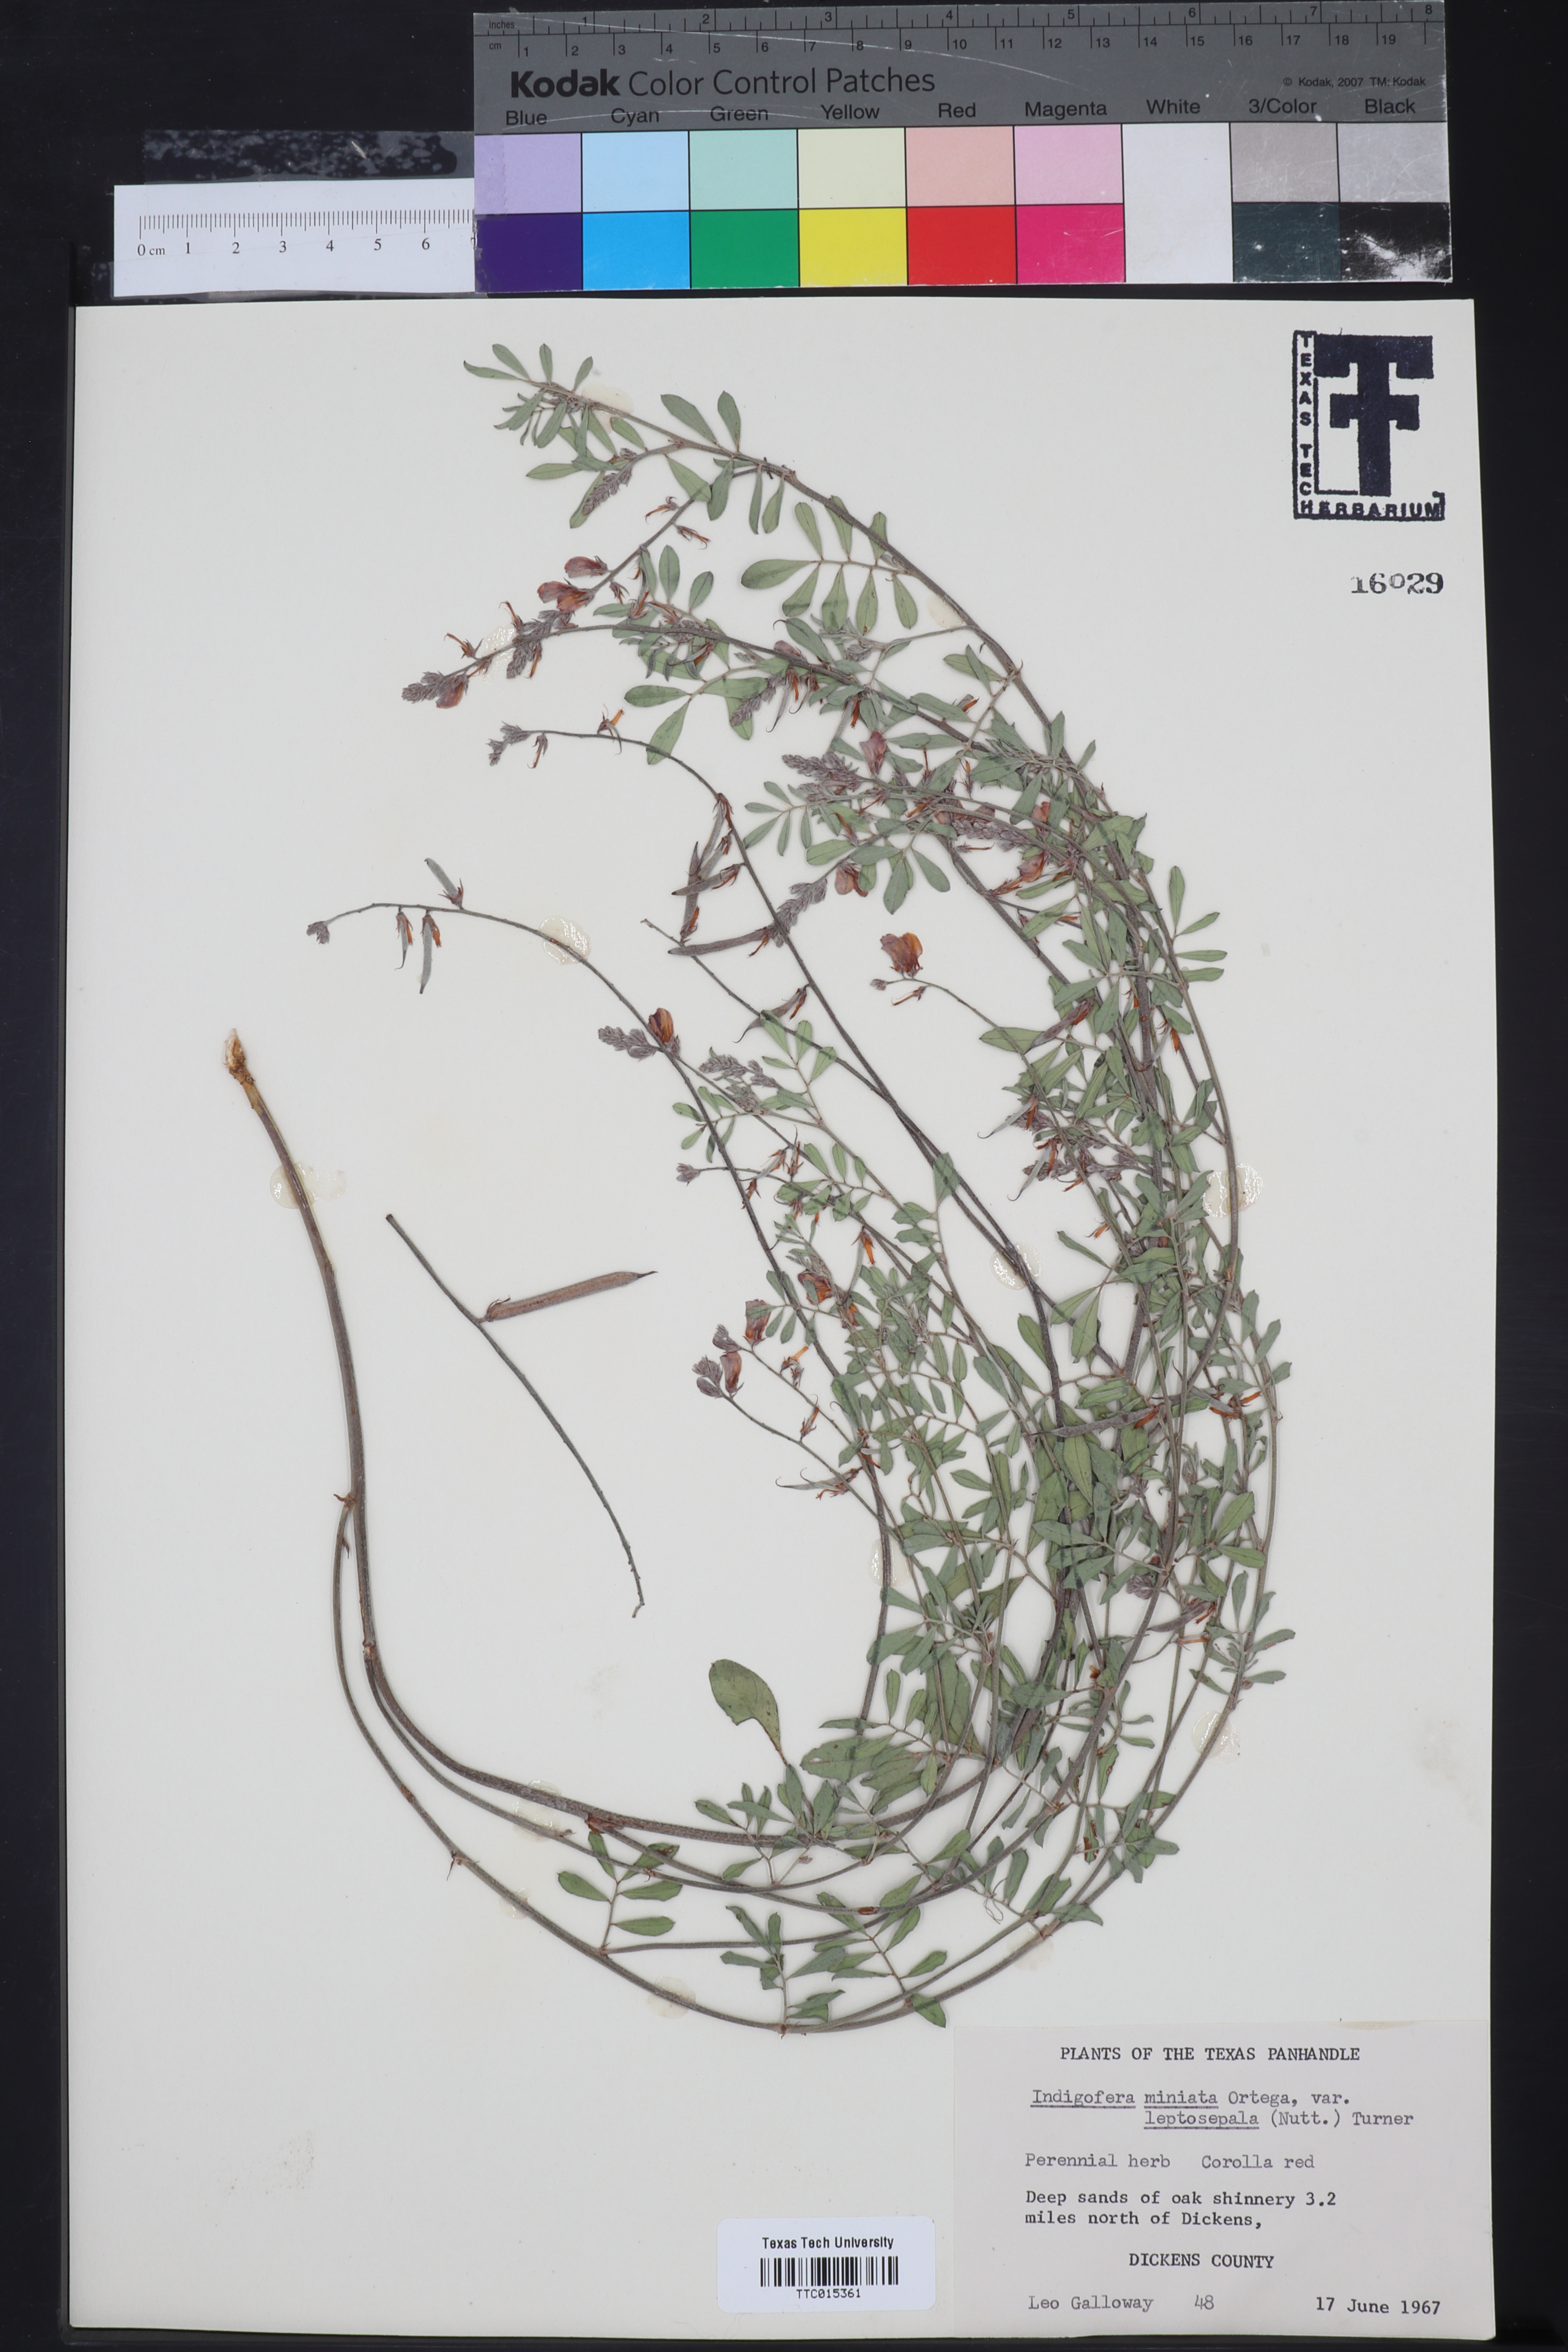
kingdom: Plantae
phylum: Tracheophyta
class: Magnoliopsida
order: Fabales
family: Fabaceae
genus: Indigofera
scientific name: Indigofera miniata
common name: Coast indigo
